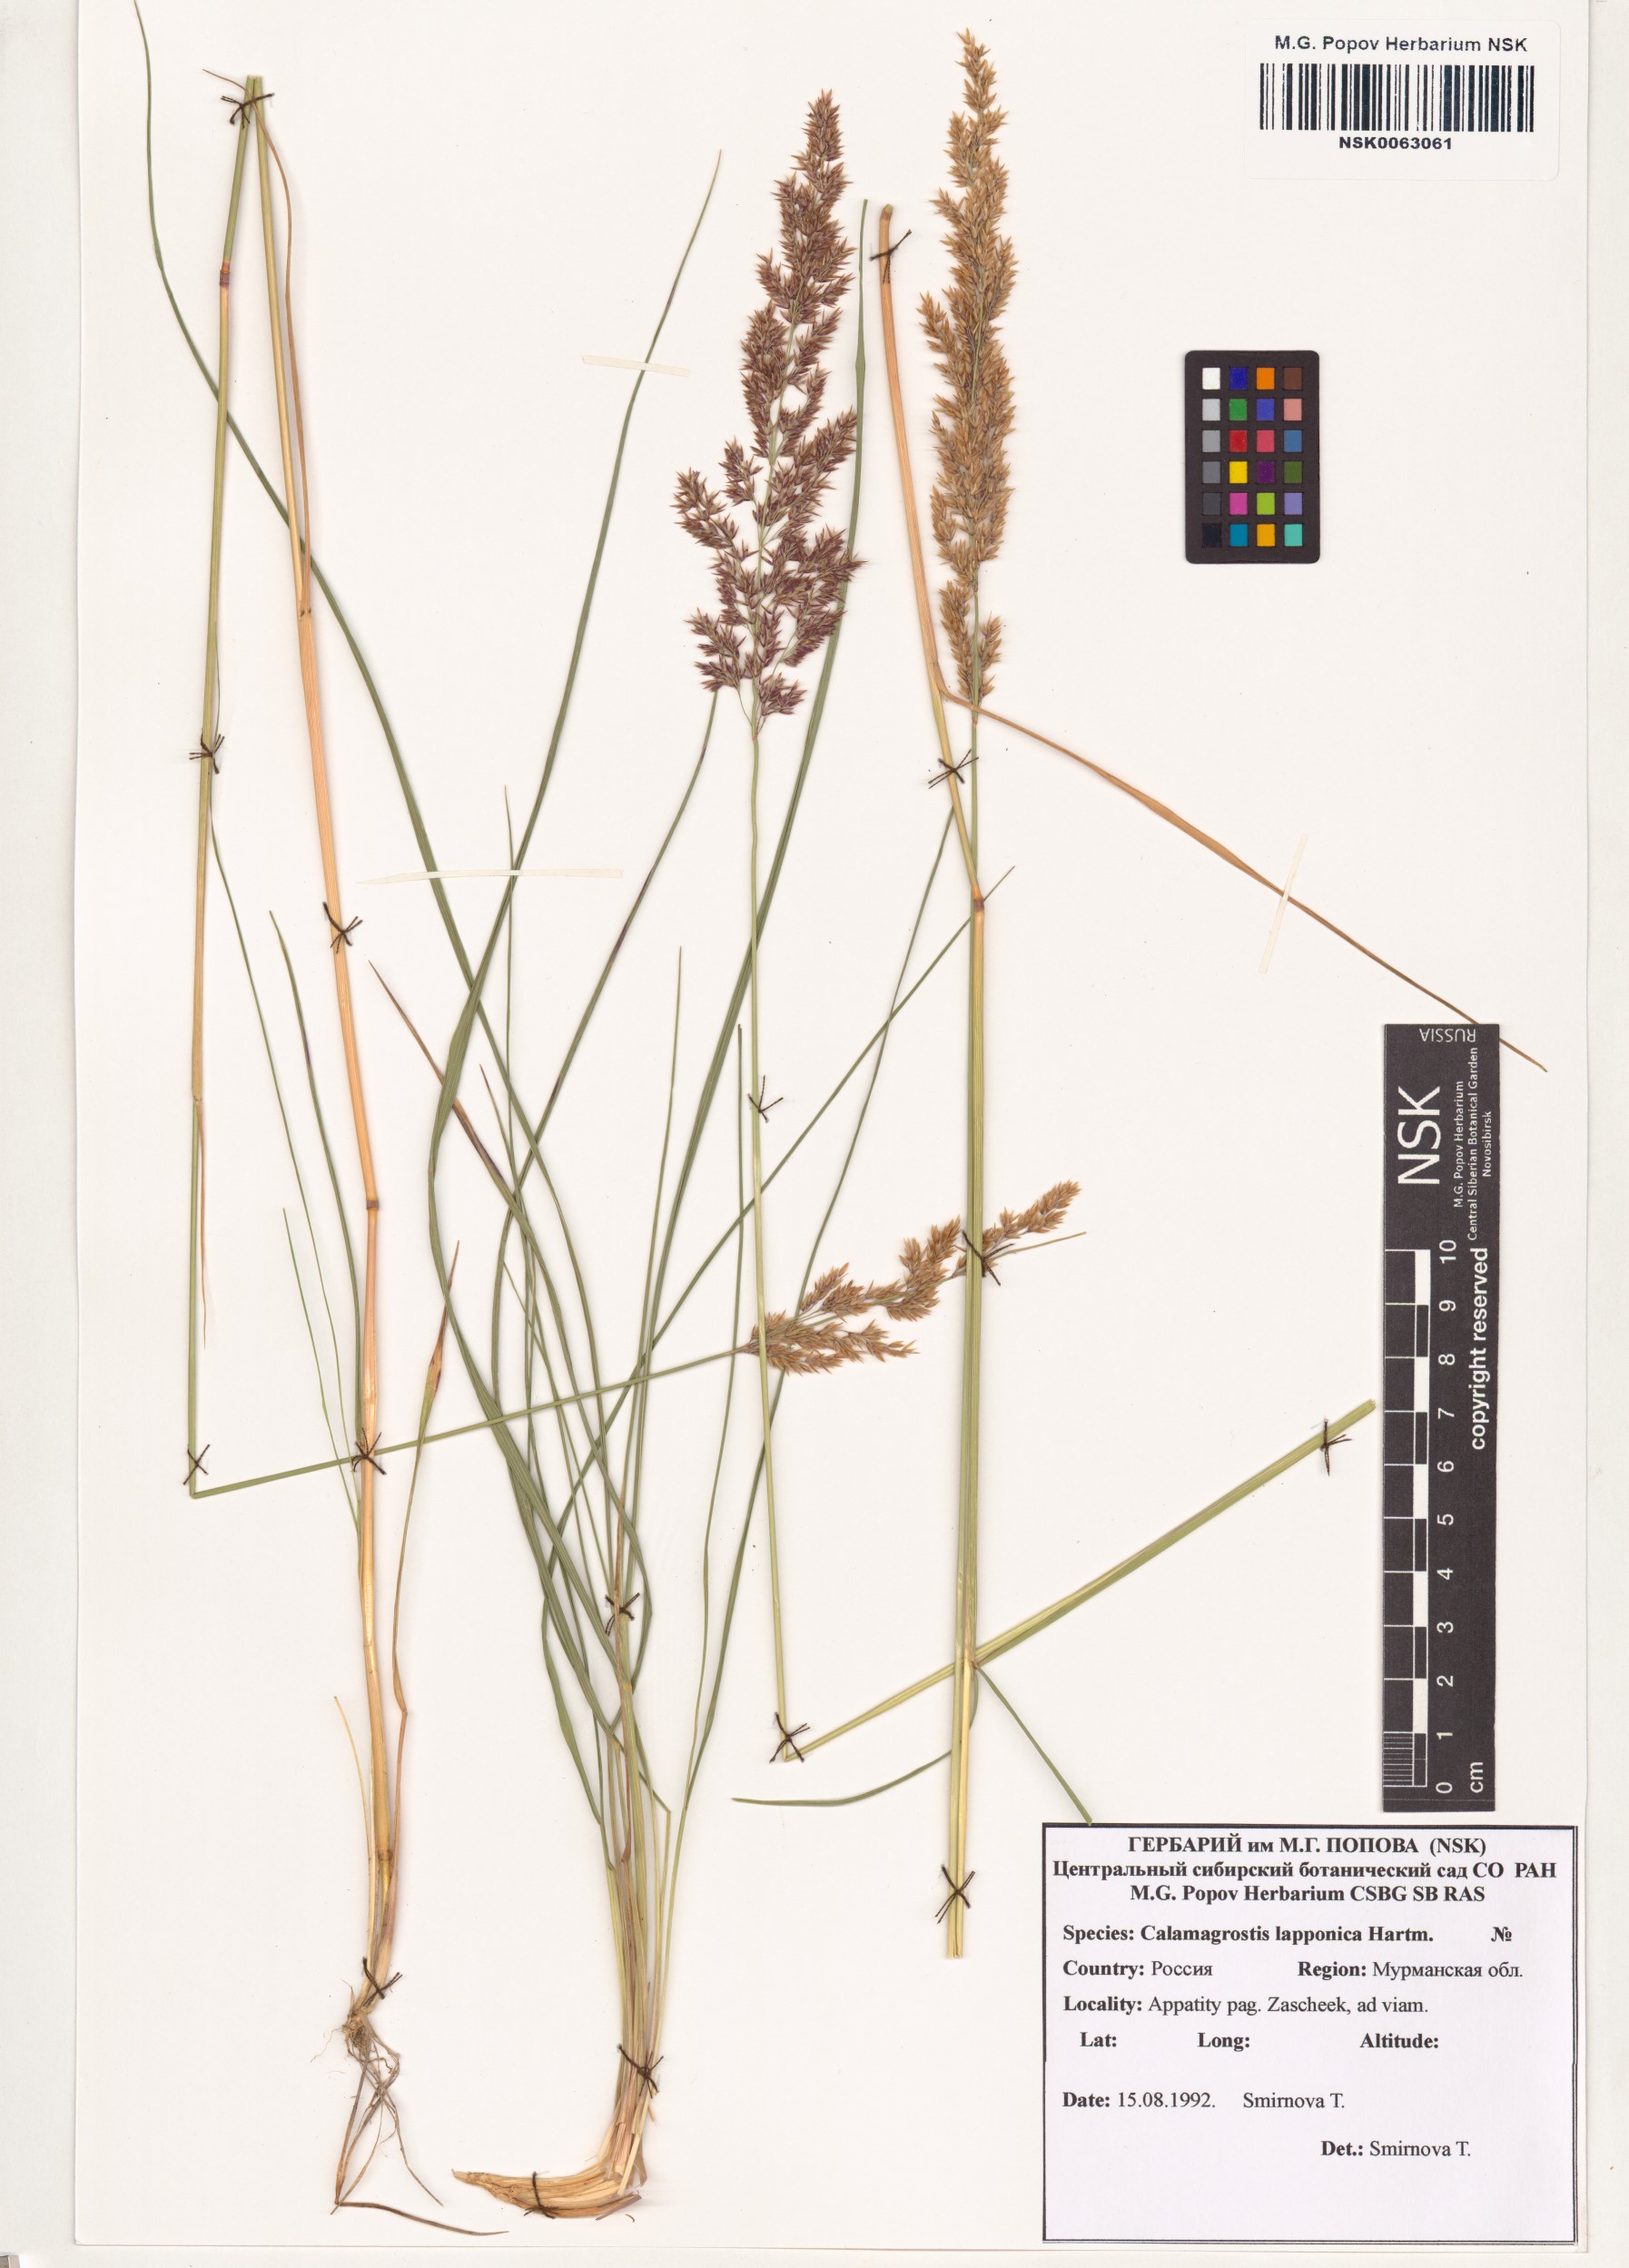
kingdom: Plantae
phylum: Tracheophyta
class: Liliopsida
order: Poales
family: Poaceae
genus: Calamagrostis
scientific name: Calamagrostis lapponica
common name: Lapland reedgrass
